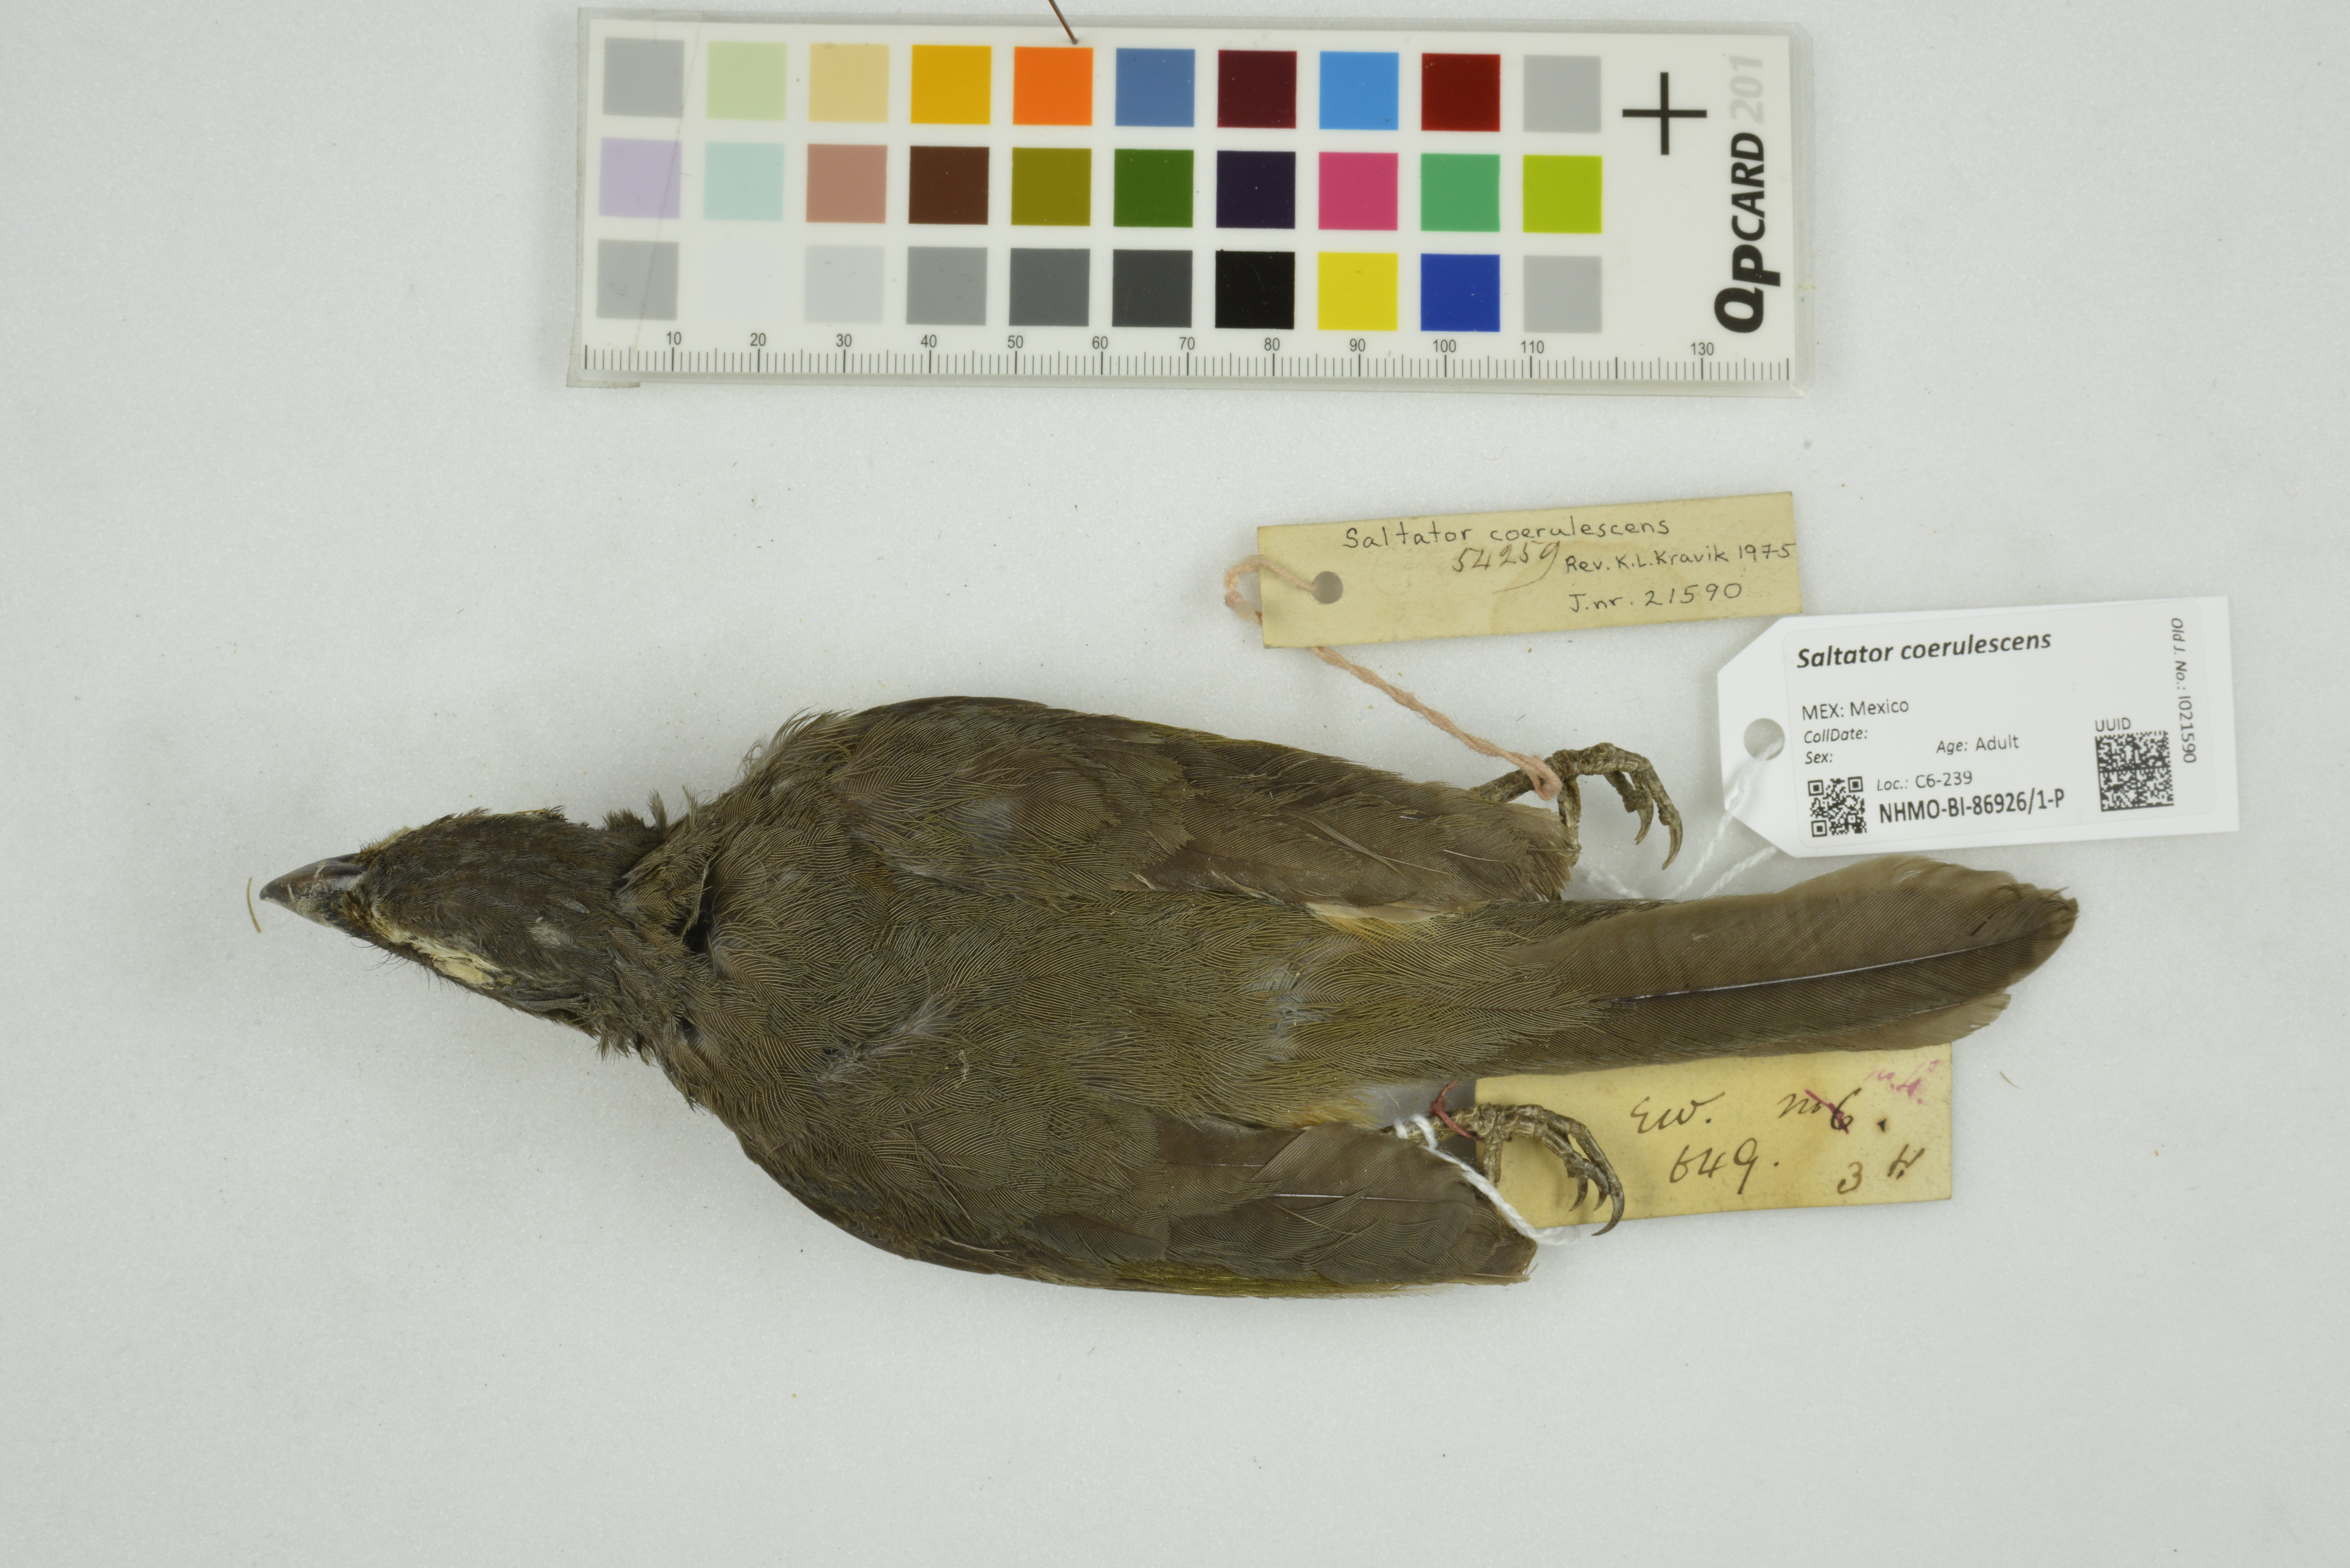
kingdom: Animalia
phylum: Chordata
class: Aves
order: Passeriformes
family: Thraupidae
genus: Saltator
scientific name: Saltator coerulescens
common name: Grayish saltator
